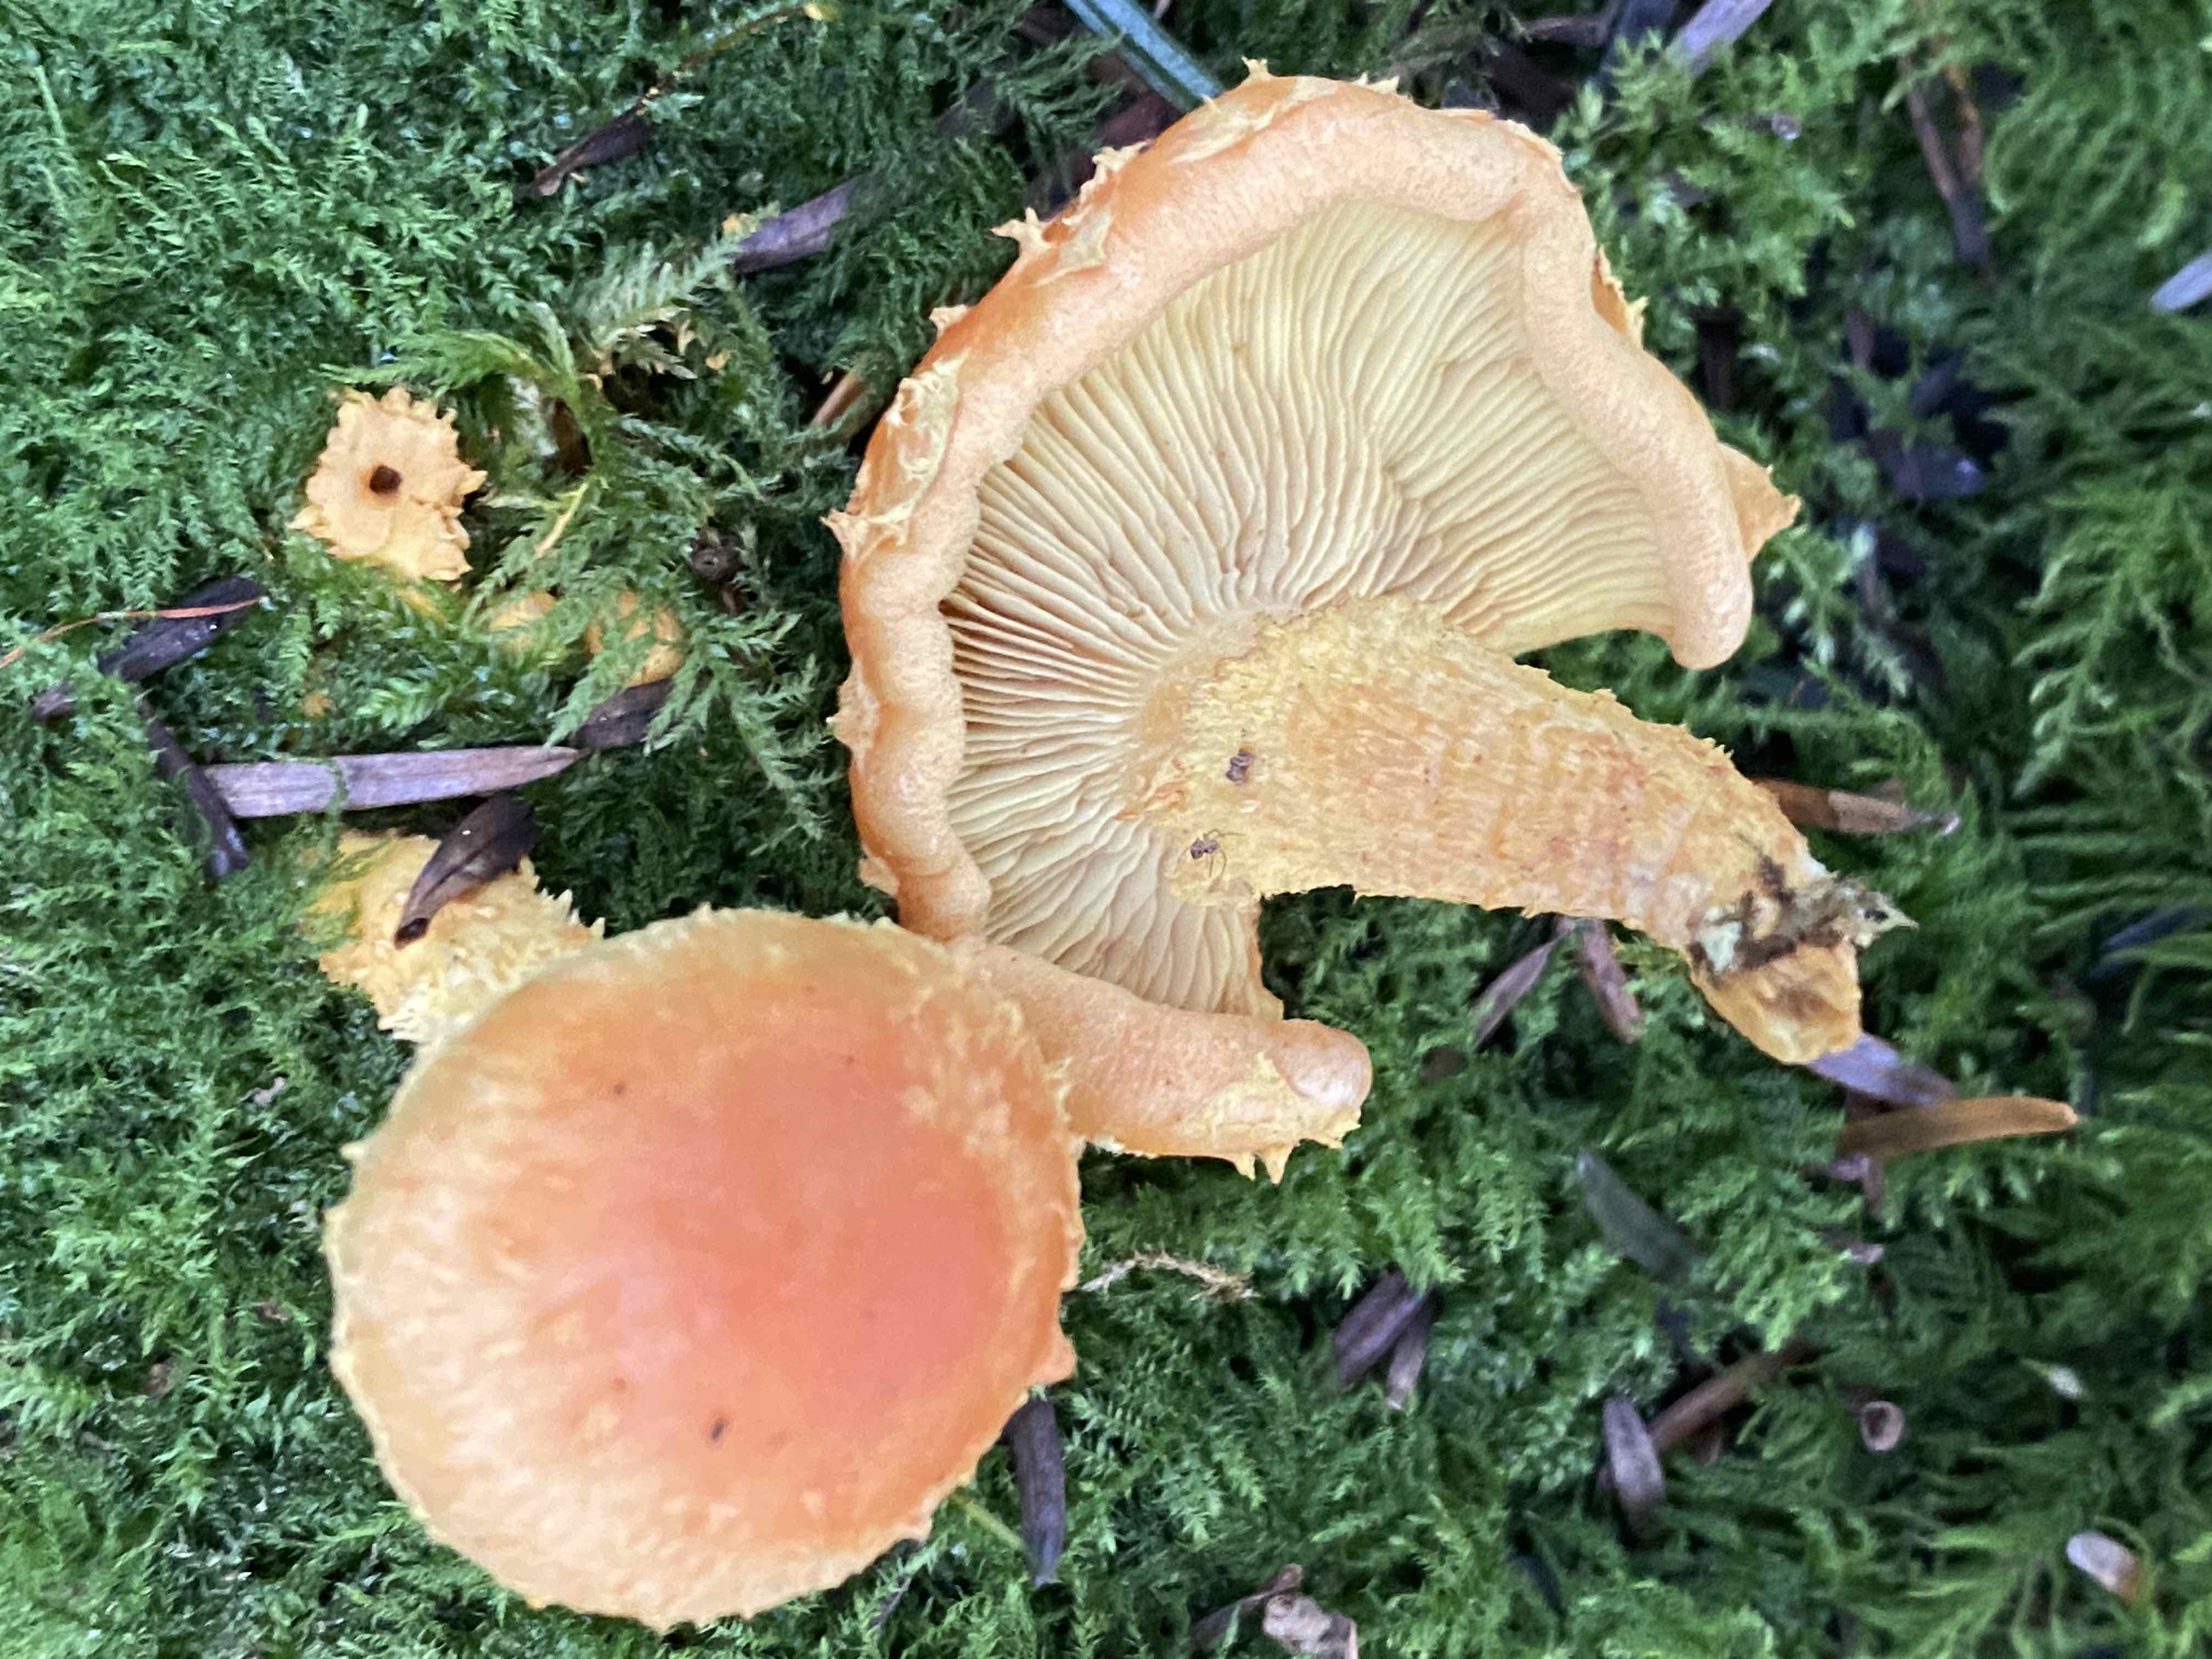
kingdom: Fungi
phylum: Basidiomycota
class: Agaricomycetes
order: Agaricales
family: Strophariaceae
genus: Pholiota
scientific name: Pholiota flammans
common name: flamme-skælhat
